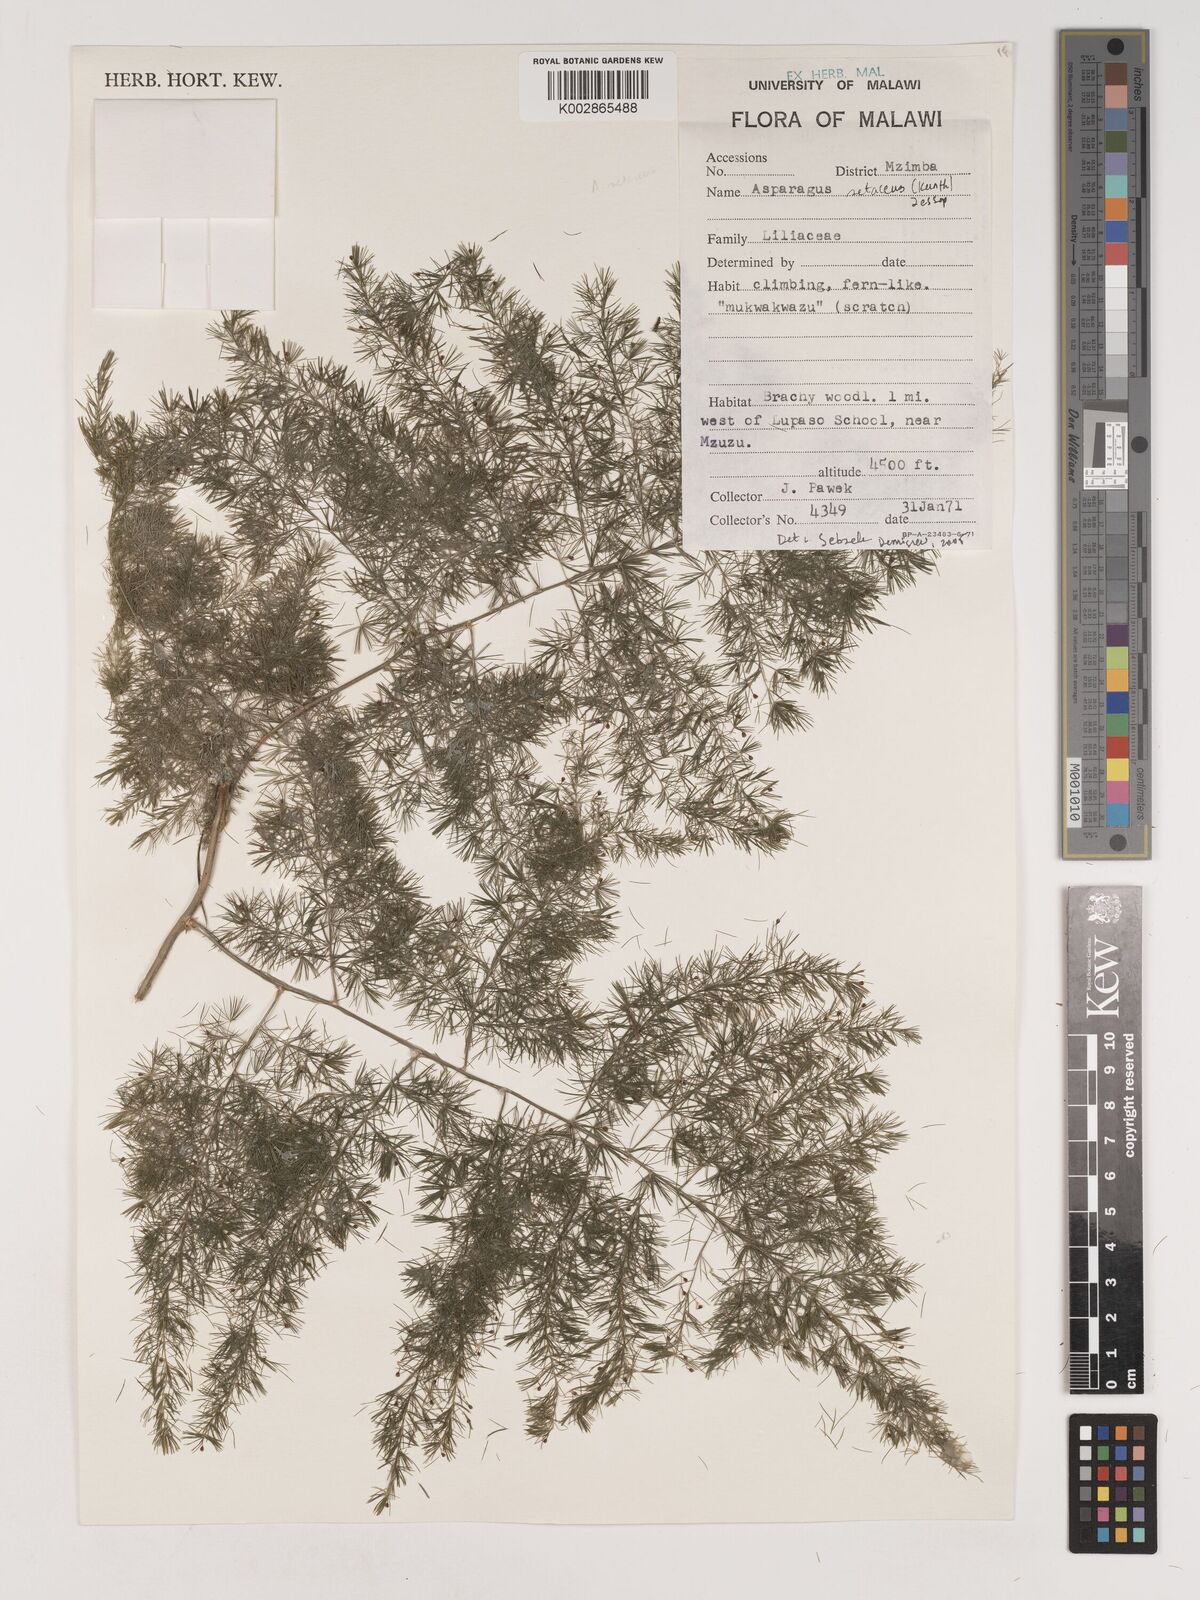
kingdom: Plantae
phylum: Tracheophyta
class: Liliopsida
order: Asparagales
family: Asparagaceae
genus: Asparagus
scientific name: Asparagus setaceus
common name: Common asparagus fern
